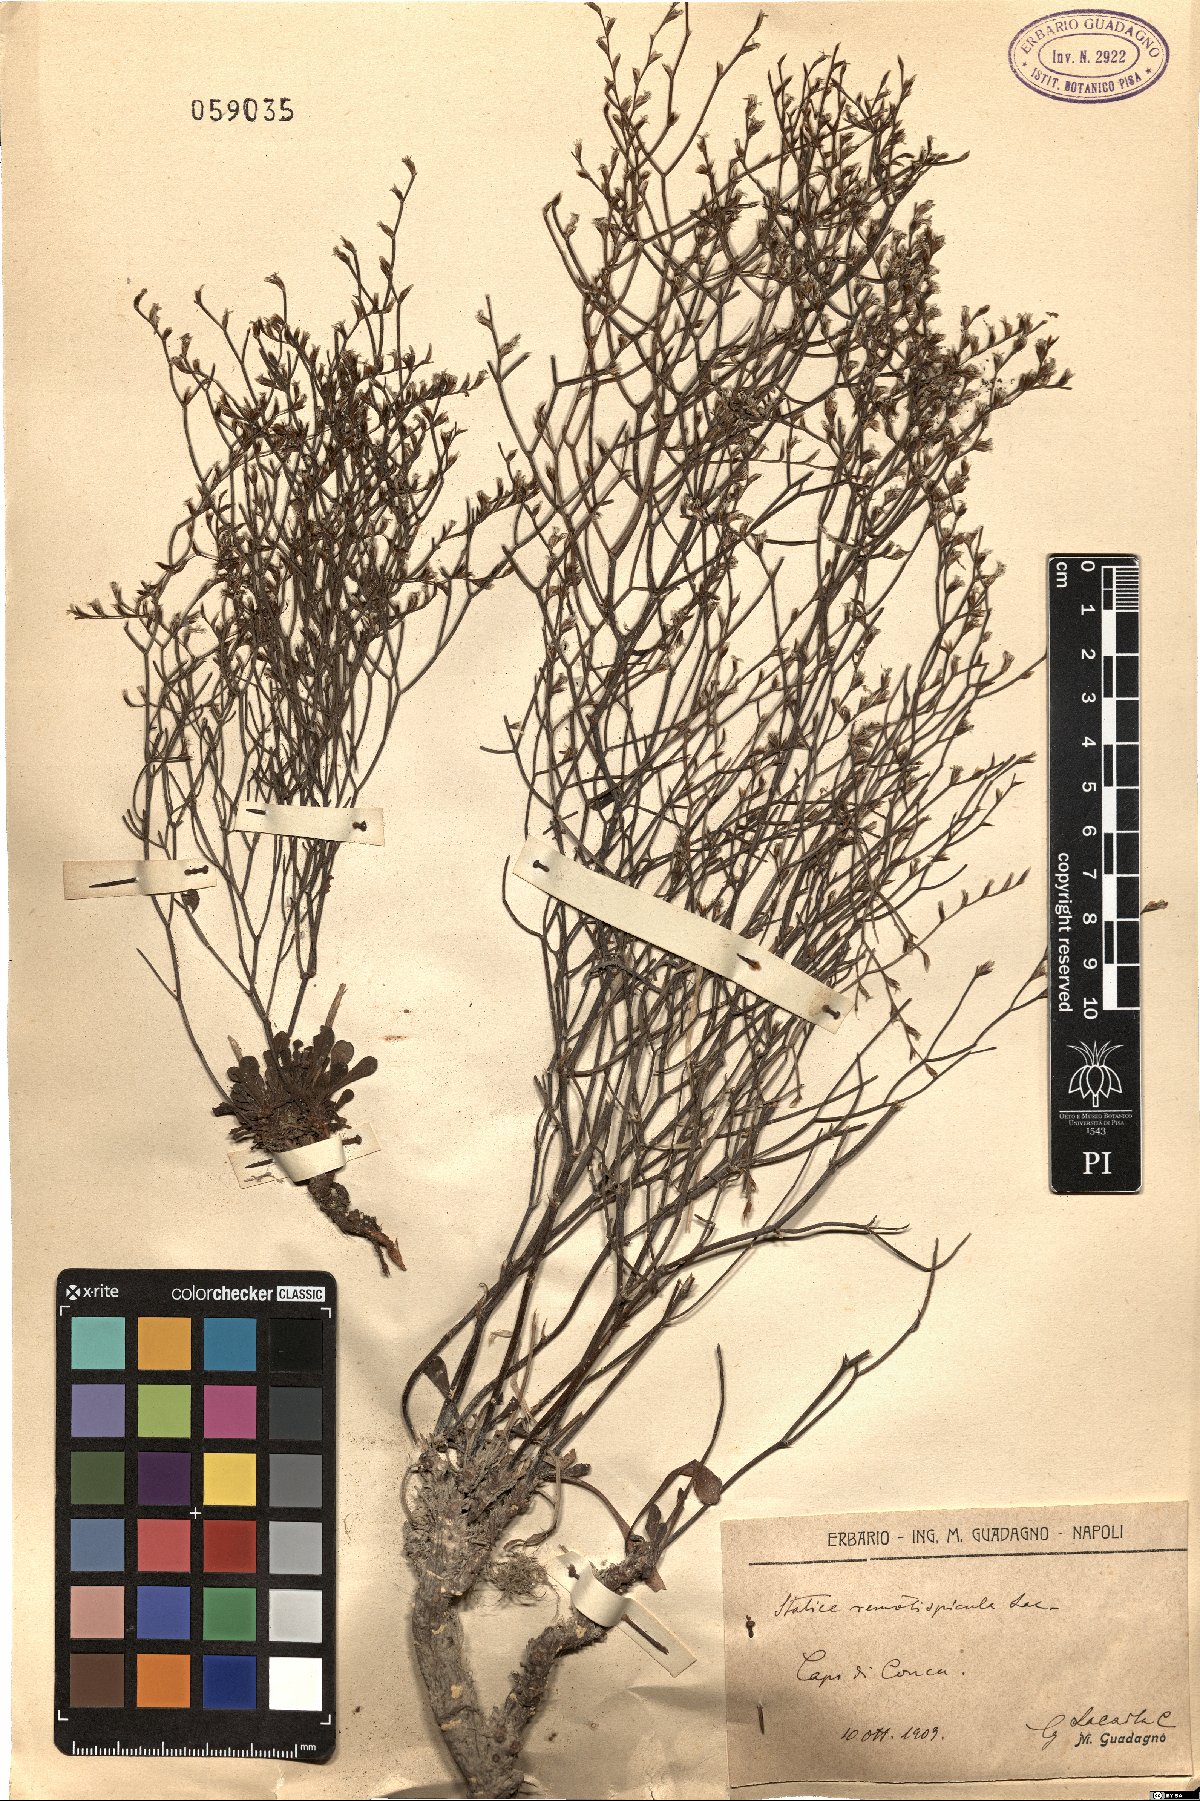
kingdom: Plantae
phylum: Tracheophyta
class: Magnoliopsida
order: Caryophyllales
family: Plumbaginaceae
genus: Limonium
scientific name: Limonium remotispiculum
